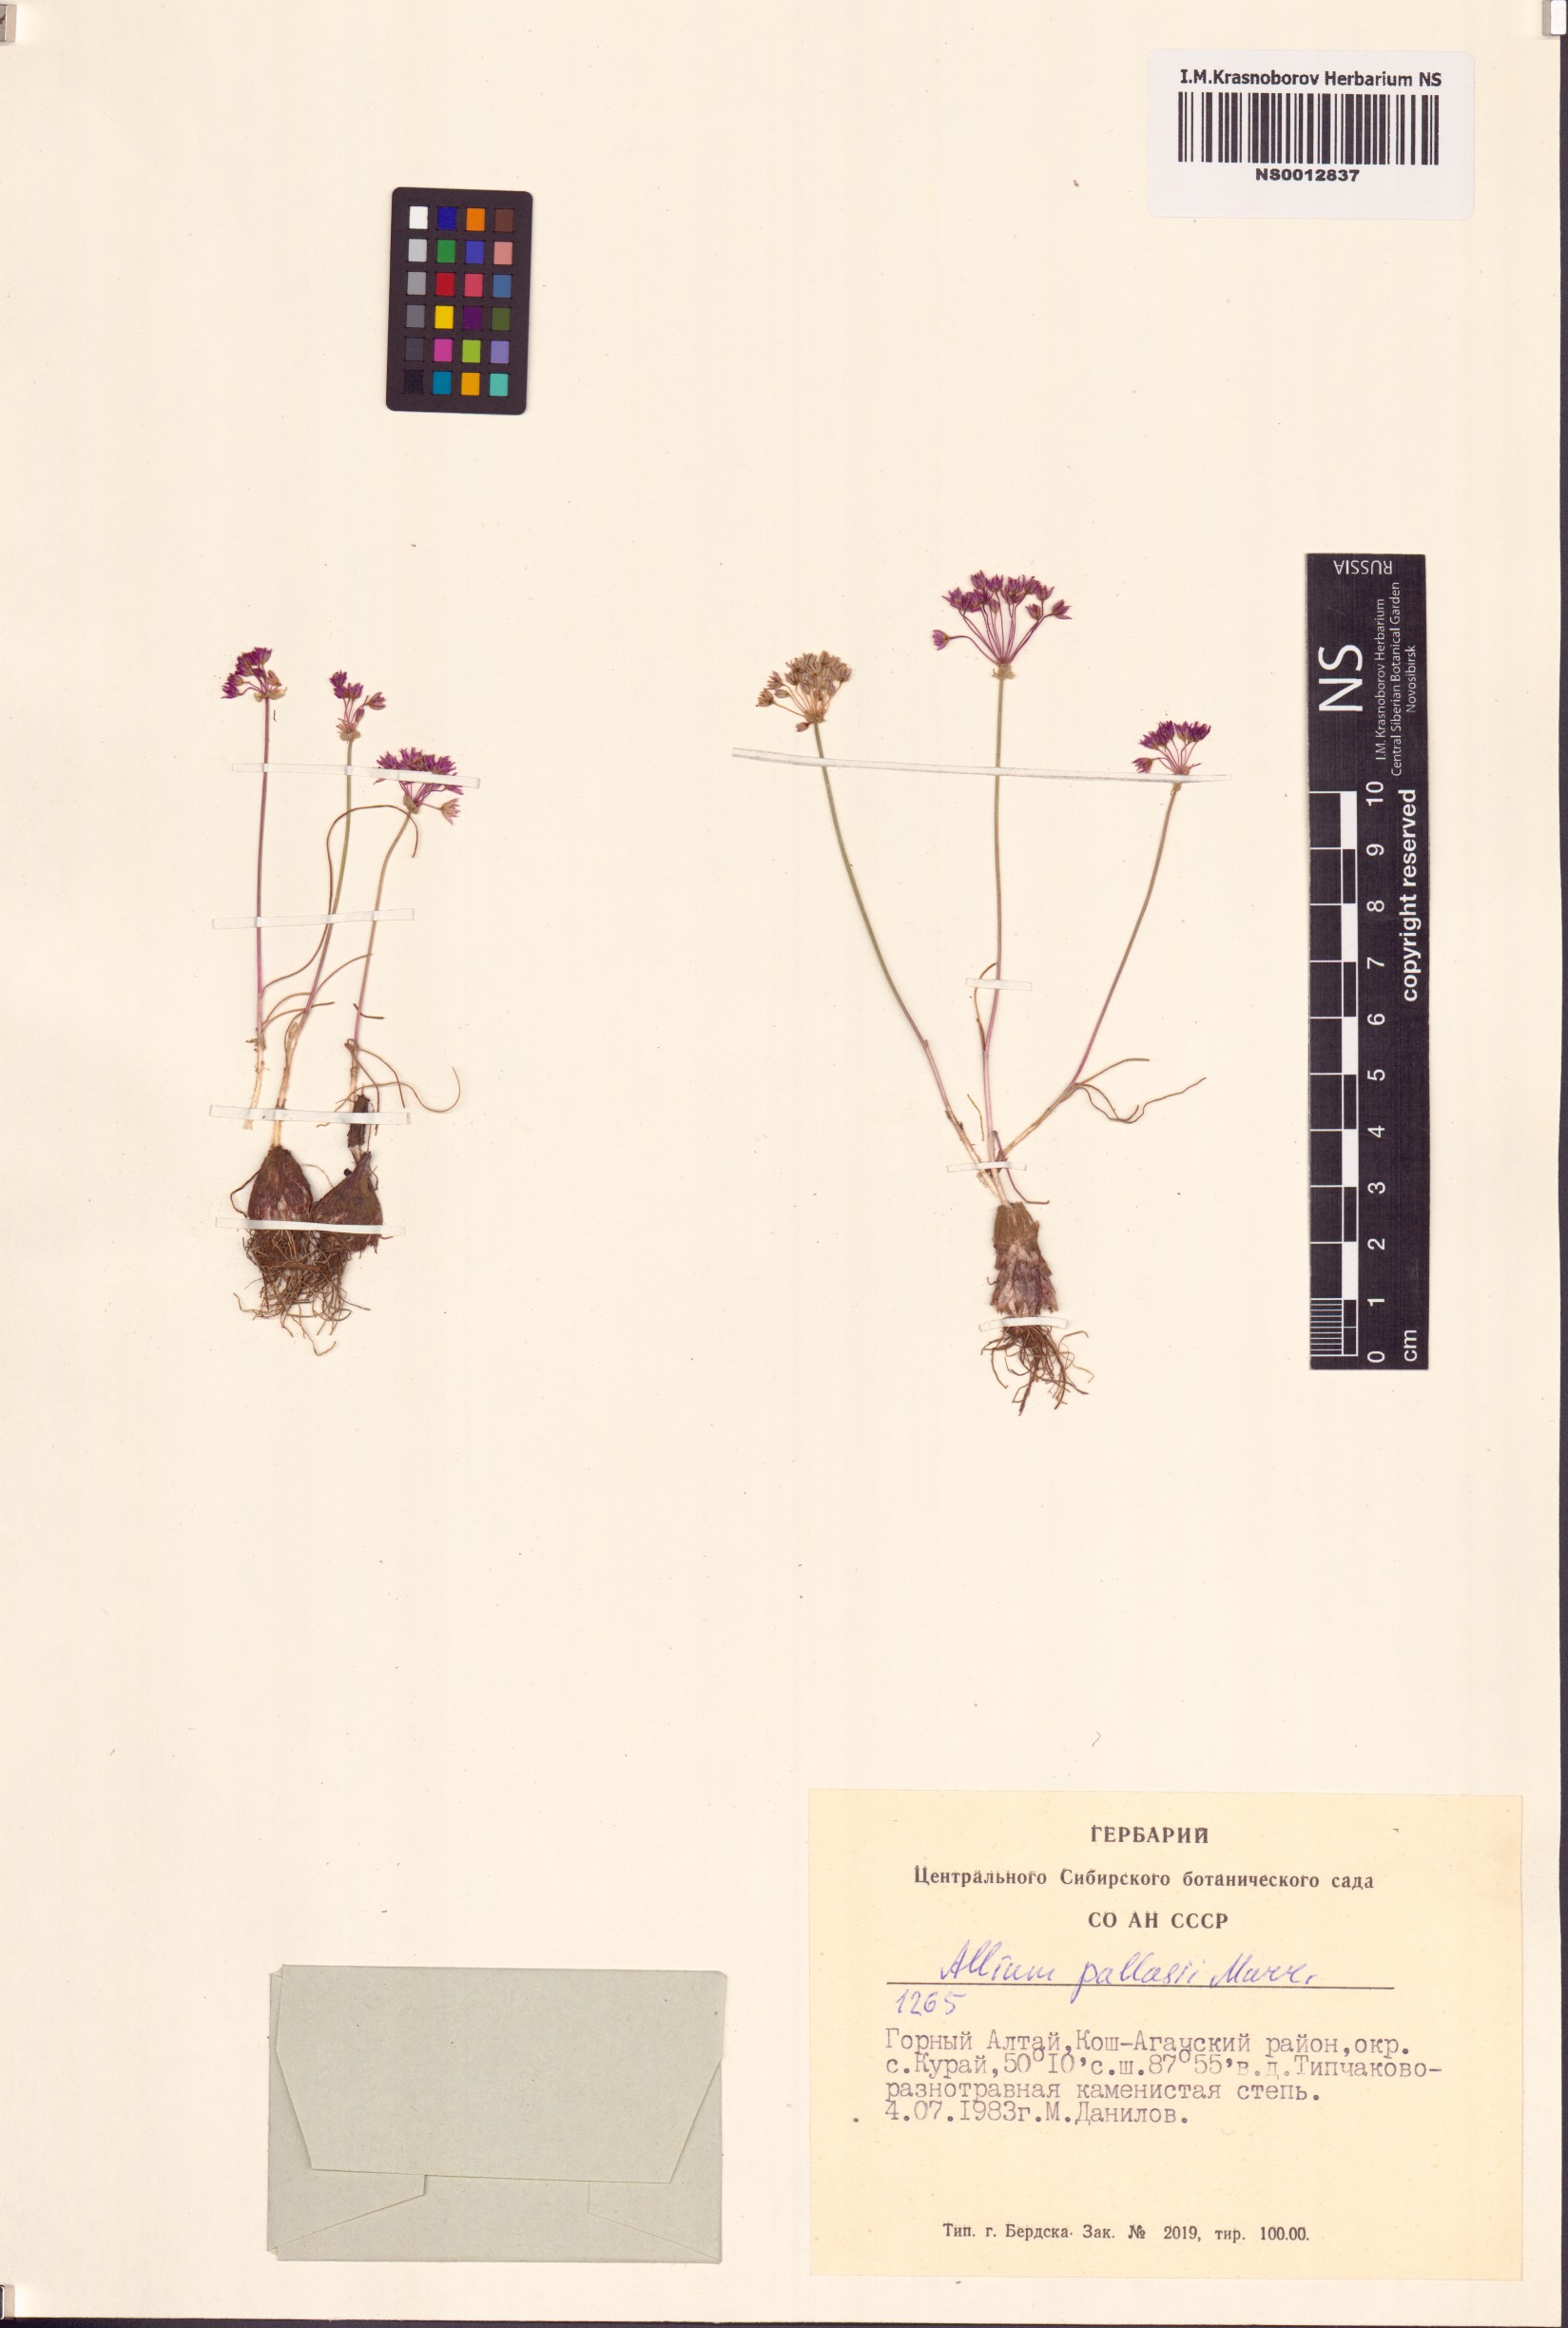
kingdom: Plantae
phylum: Tracheophyta
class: Liliopsida
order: Asparagales
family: Amaryllidaceae
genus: Allium
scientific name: Allium pallasii
